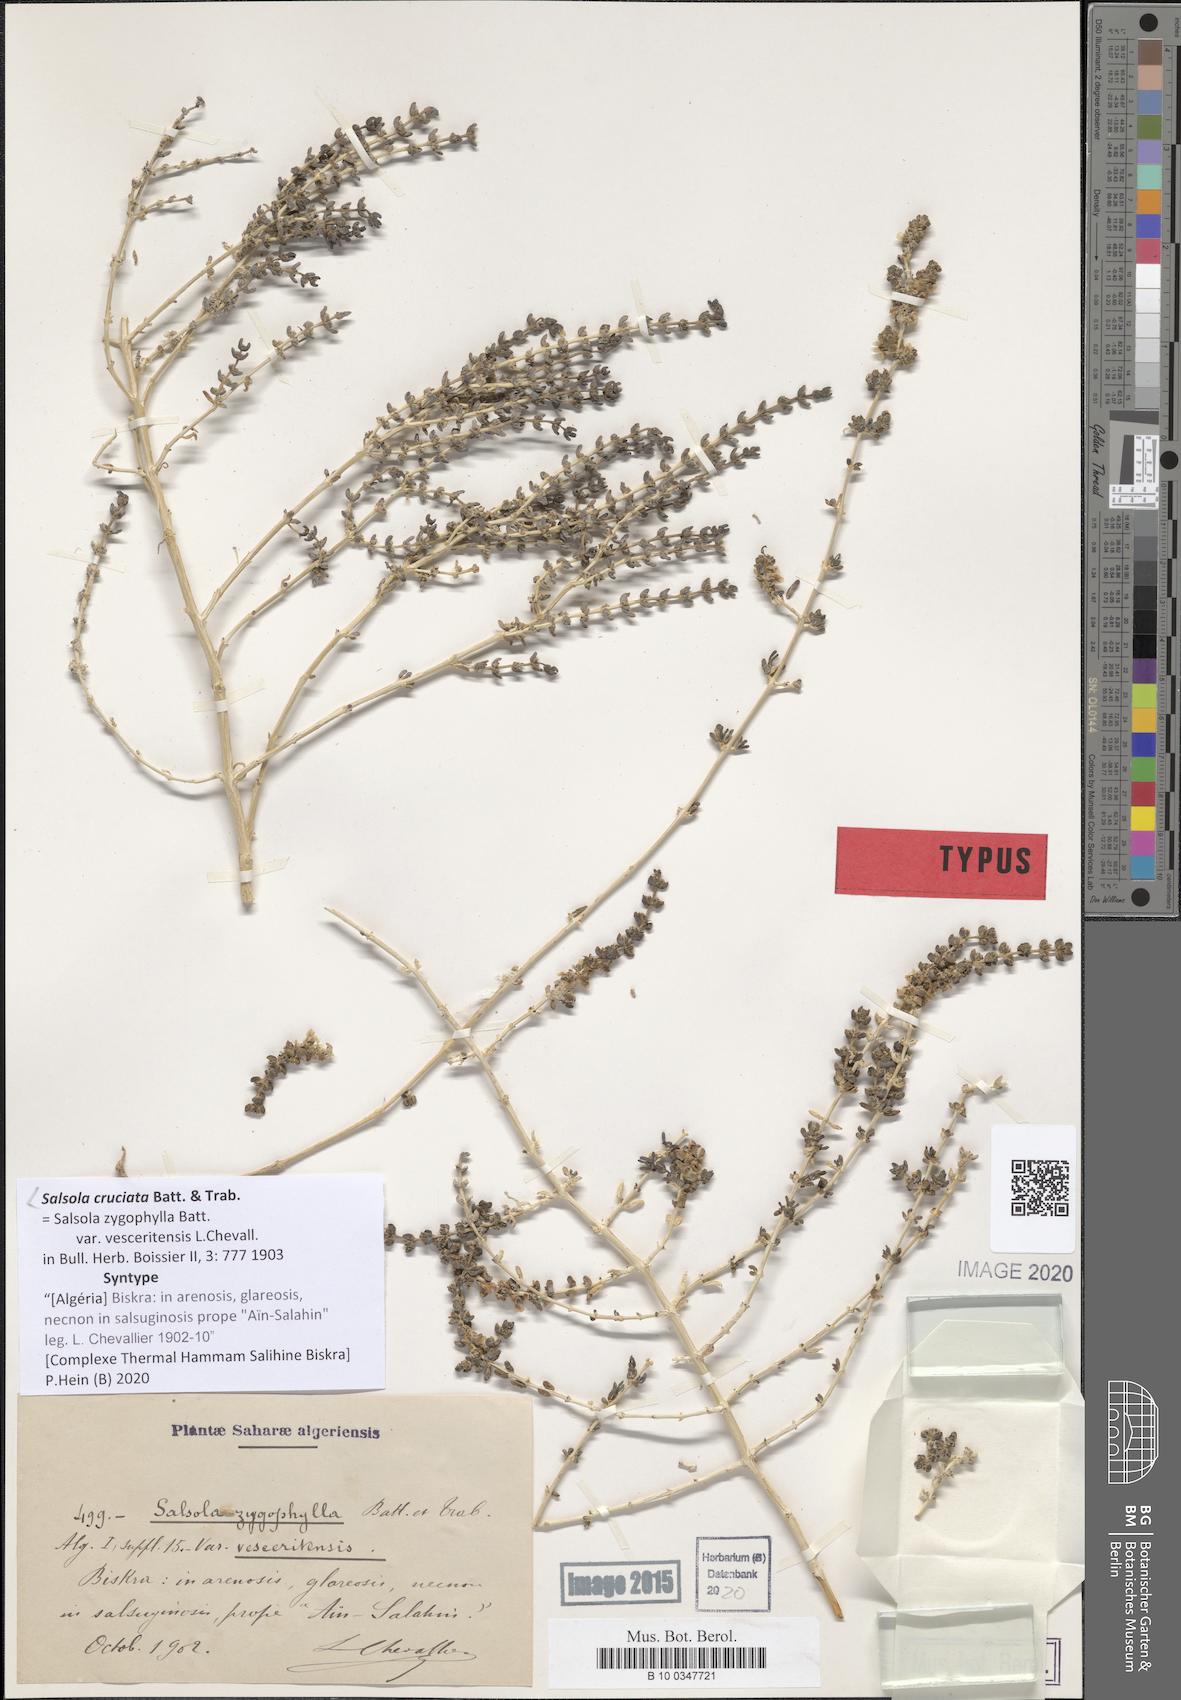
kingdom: Plantae
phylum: Tracheophyta
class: Magnoliopsida
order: Caryophyllales
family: Amaranthaceae
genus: Salsola
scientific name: Salsola cruciata
